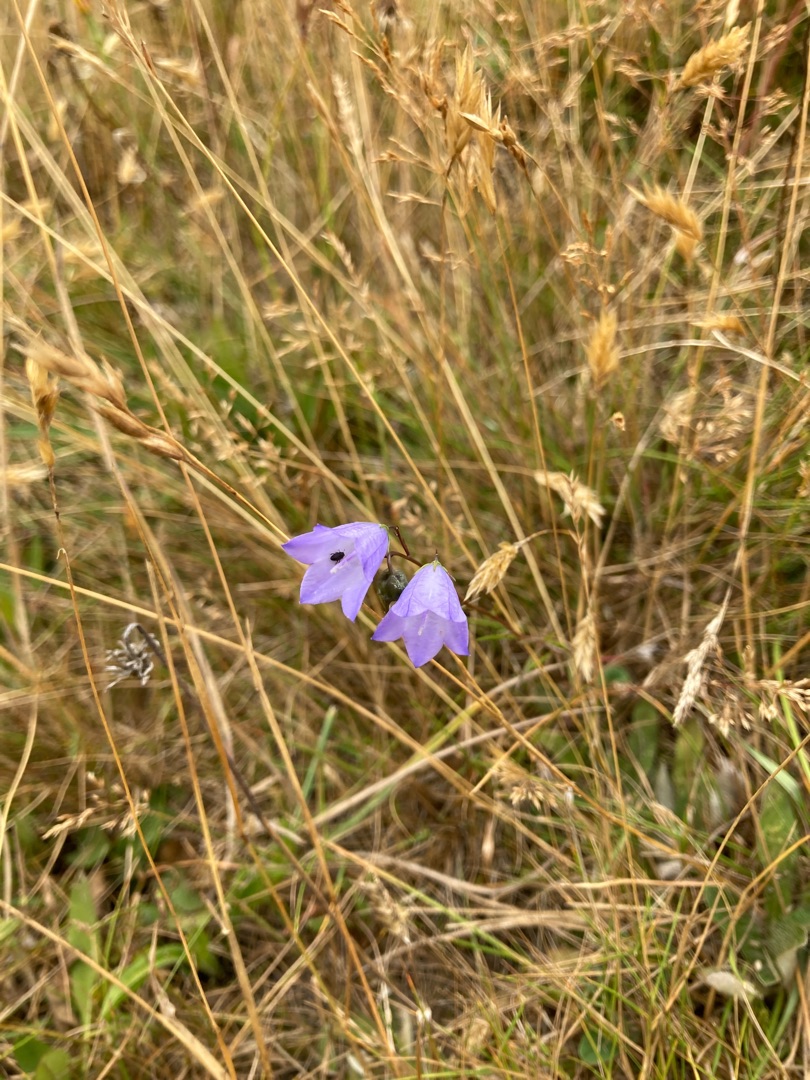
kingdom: Plantae
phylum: Tracheophyta
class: Magnoliopsida
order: Asterales
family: Campanulaceae
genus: Campanula
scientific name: Campanula rotundifolia
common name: Liden klokke
